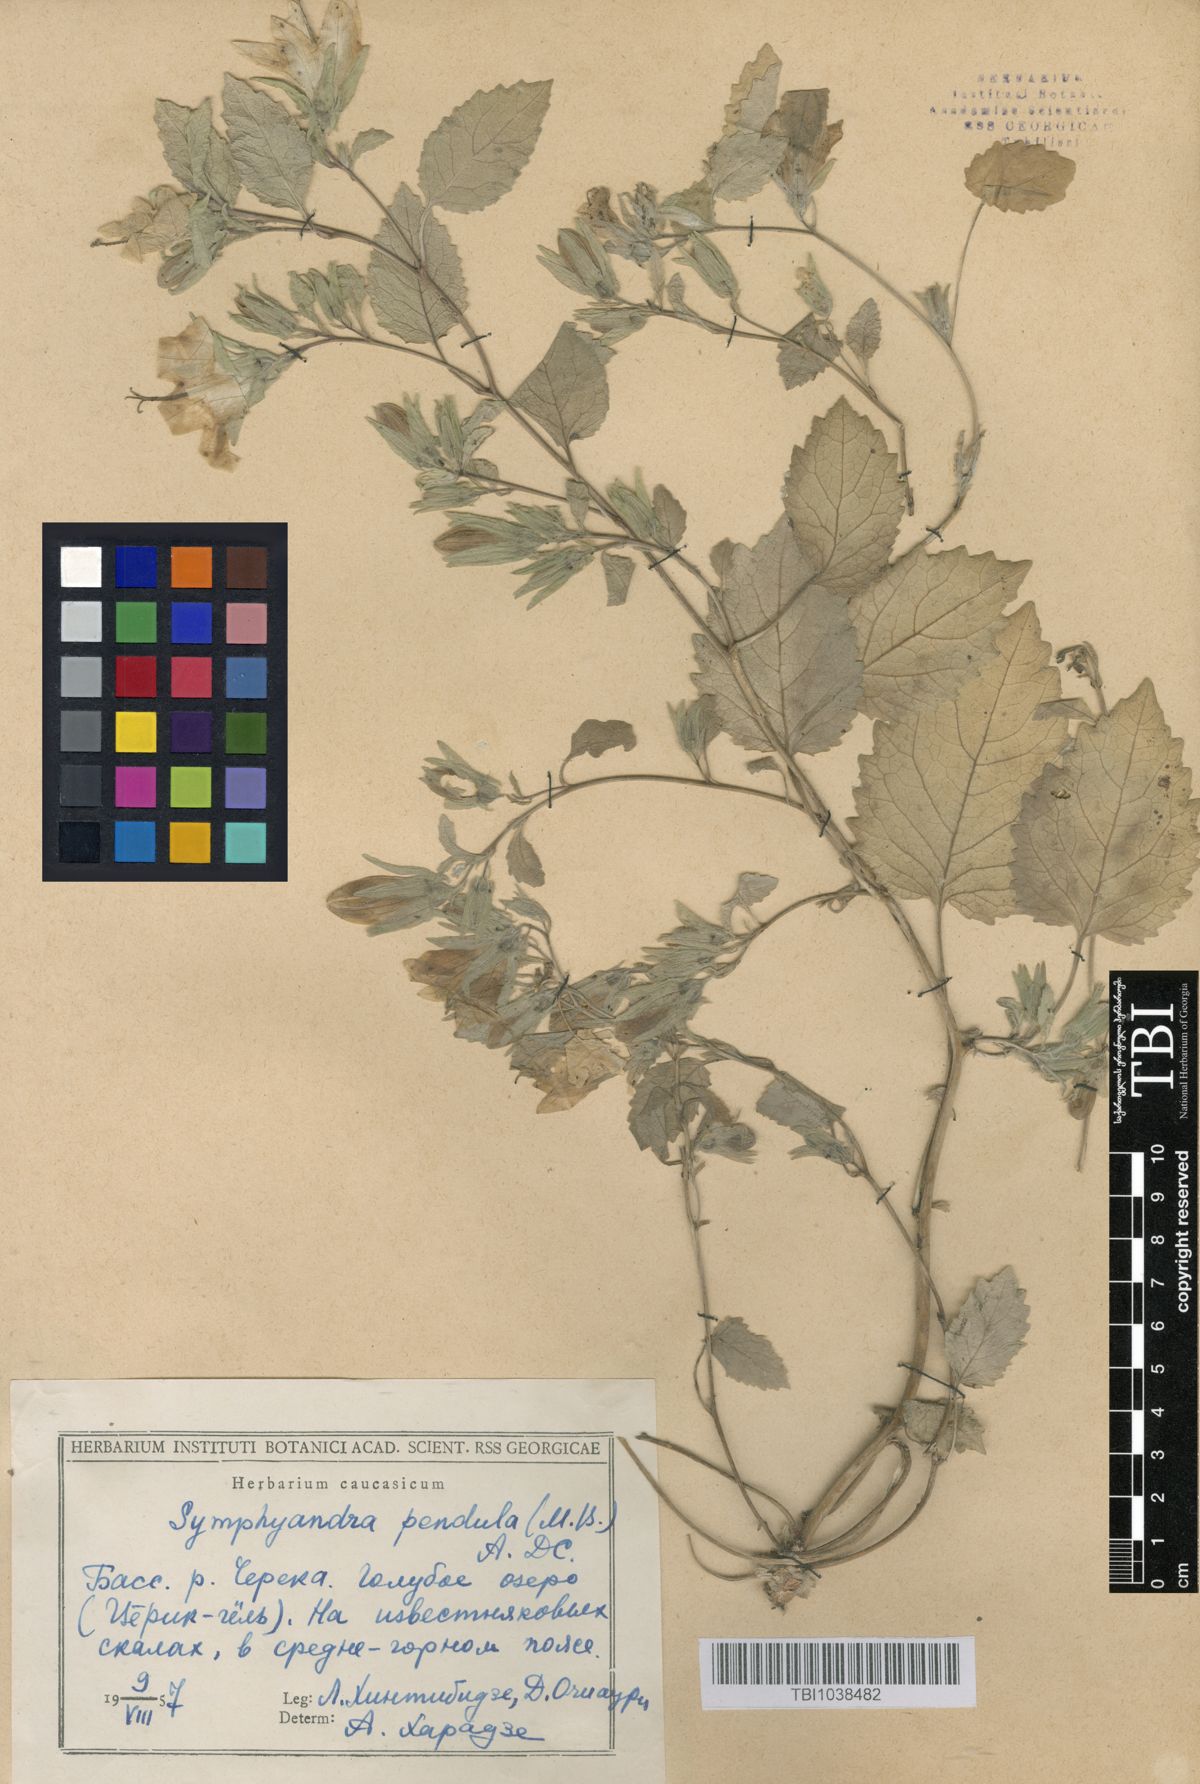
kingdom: Plantae
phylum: Tracheophyta
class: Magnoliopsida
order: Asterales
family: Campanulaceae
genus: Campanula
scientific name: Campanula pendula
